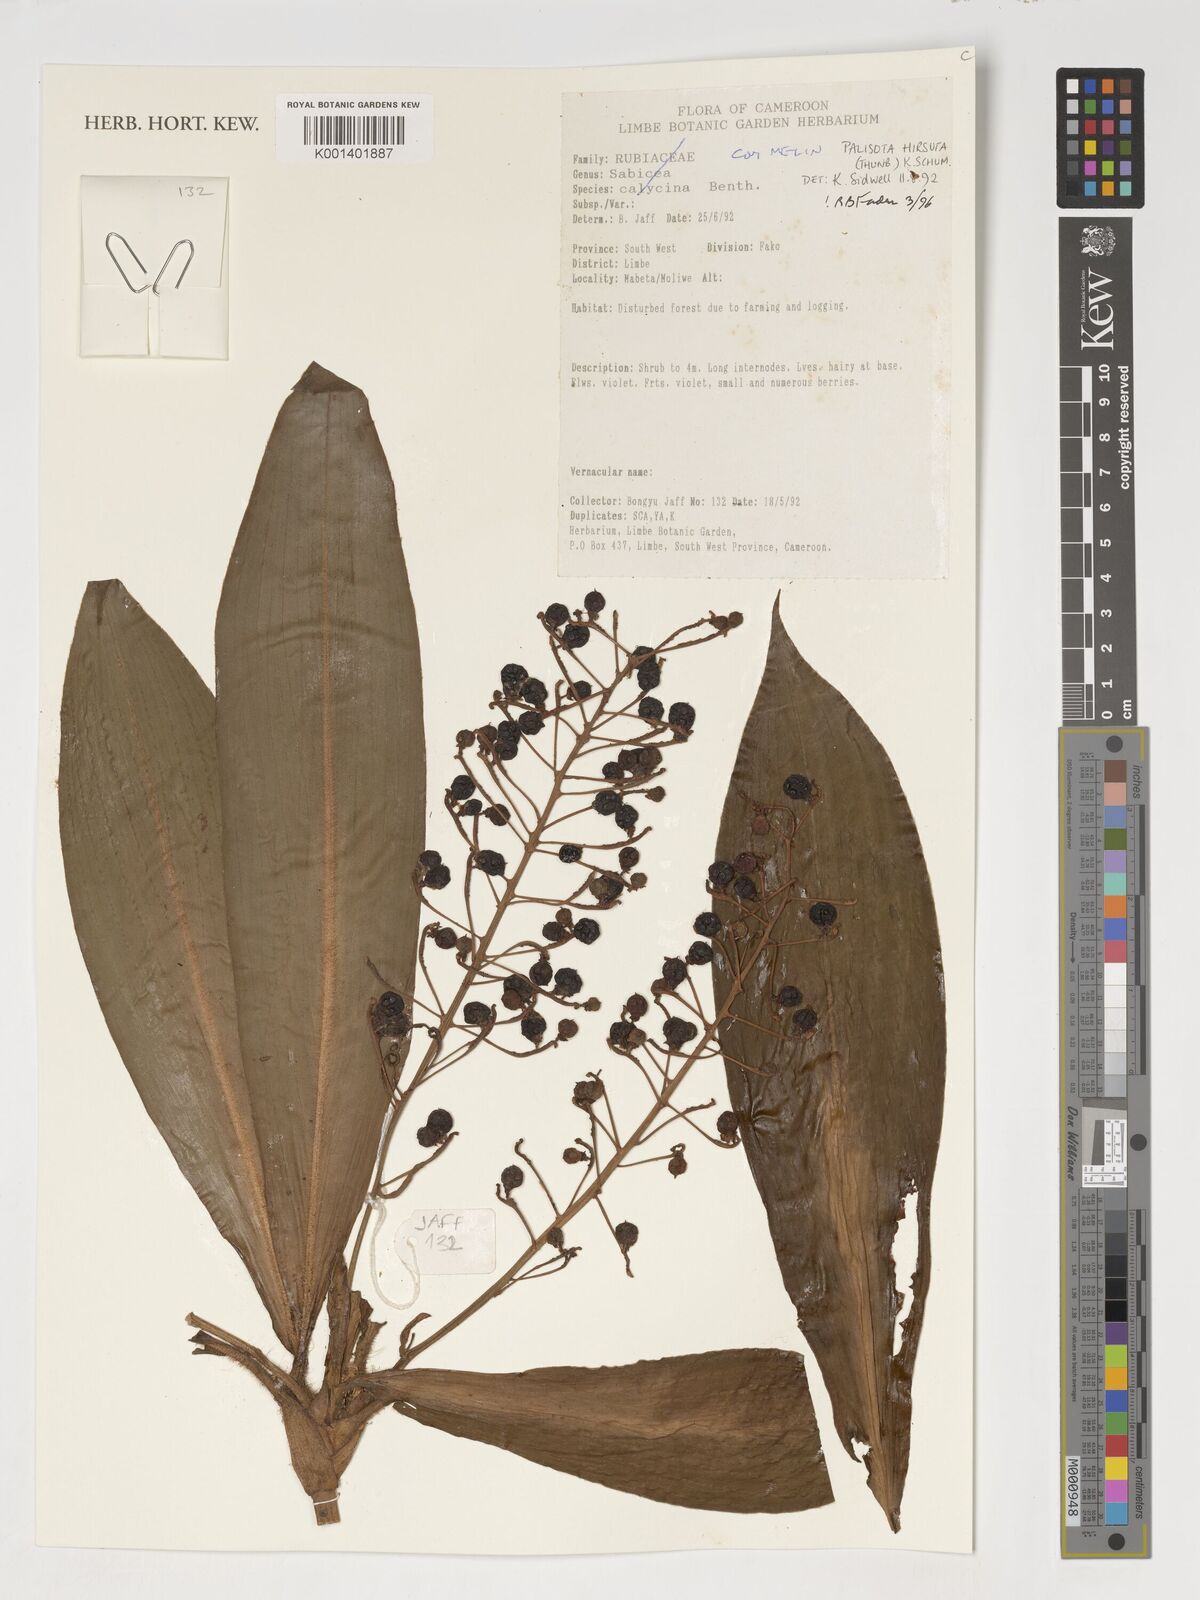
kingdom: Plantae
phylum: Tracheophyta
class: Liliopsida
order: Commelinales
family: Commelinaceae
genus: Palisota
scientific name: Palisota hirsuta
